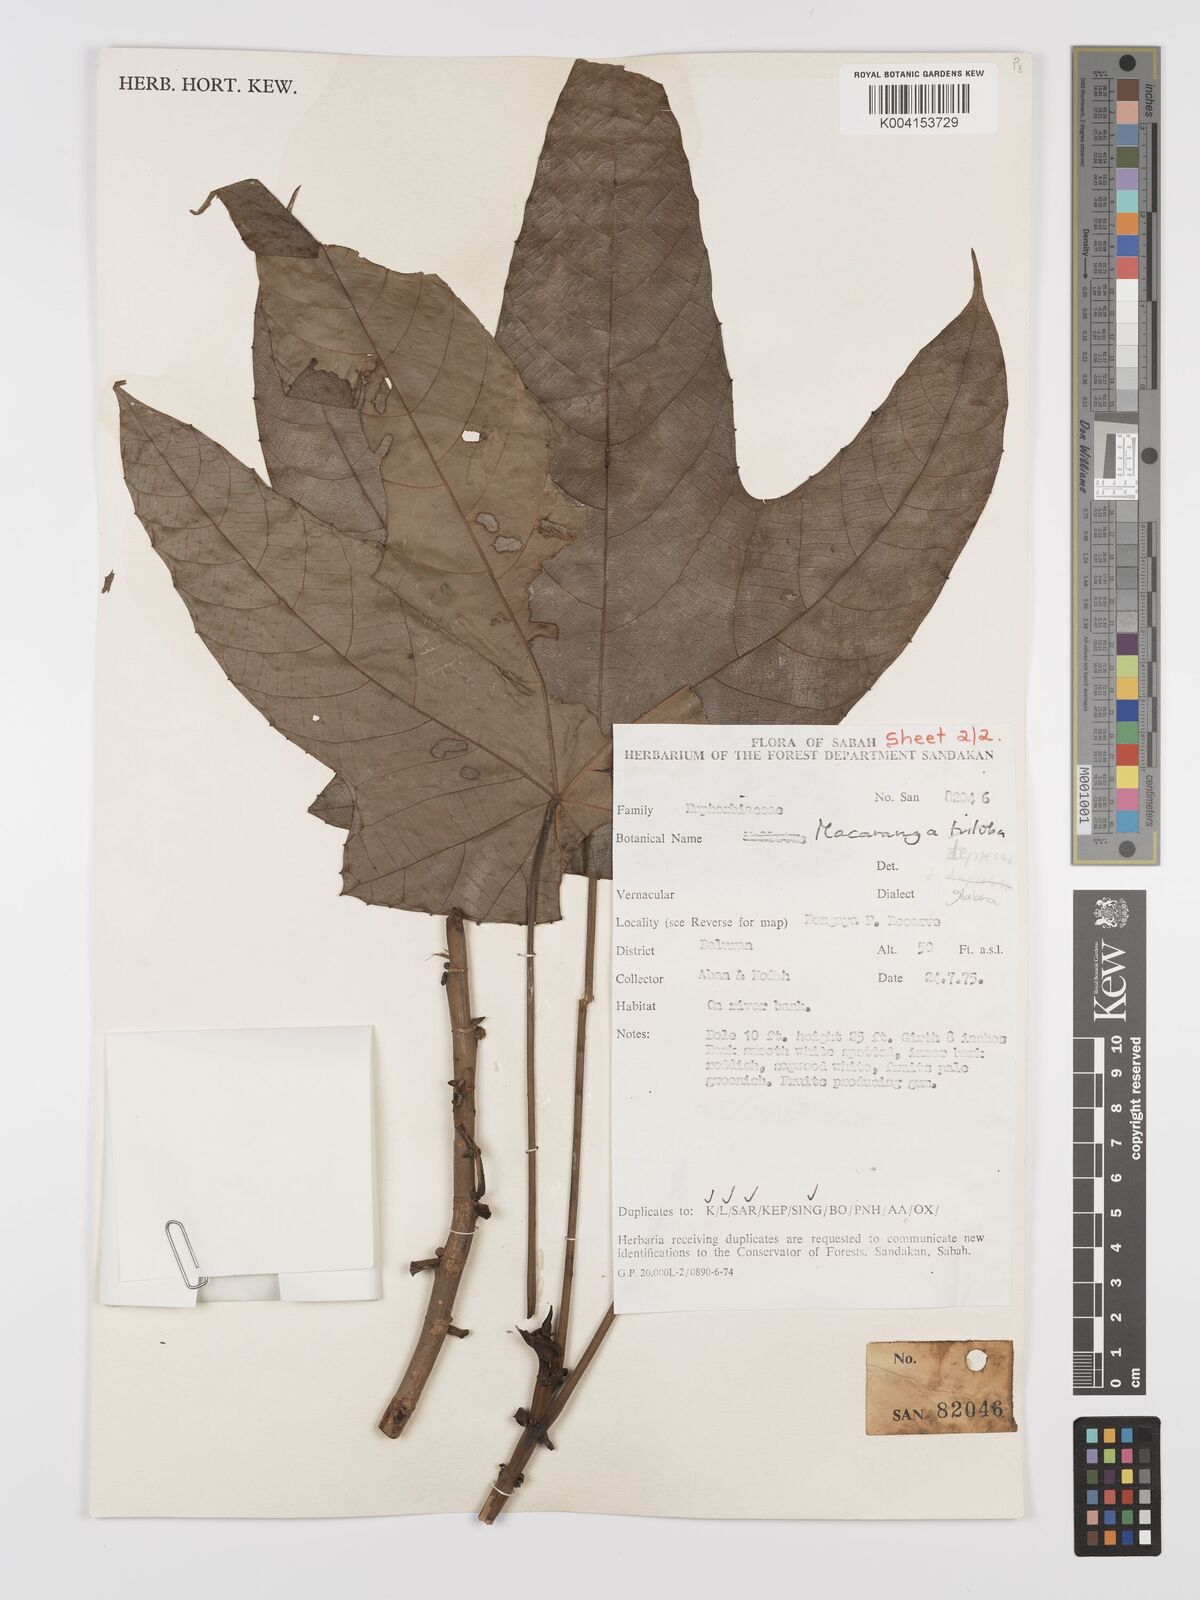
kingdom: Plantae
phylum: Tracheophyta
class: Magnoliopsida
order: Malpighiales
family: Euphorbiaceae
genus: Macaranga
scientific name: Macaranga depressa
